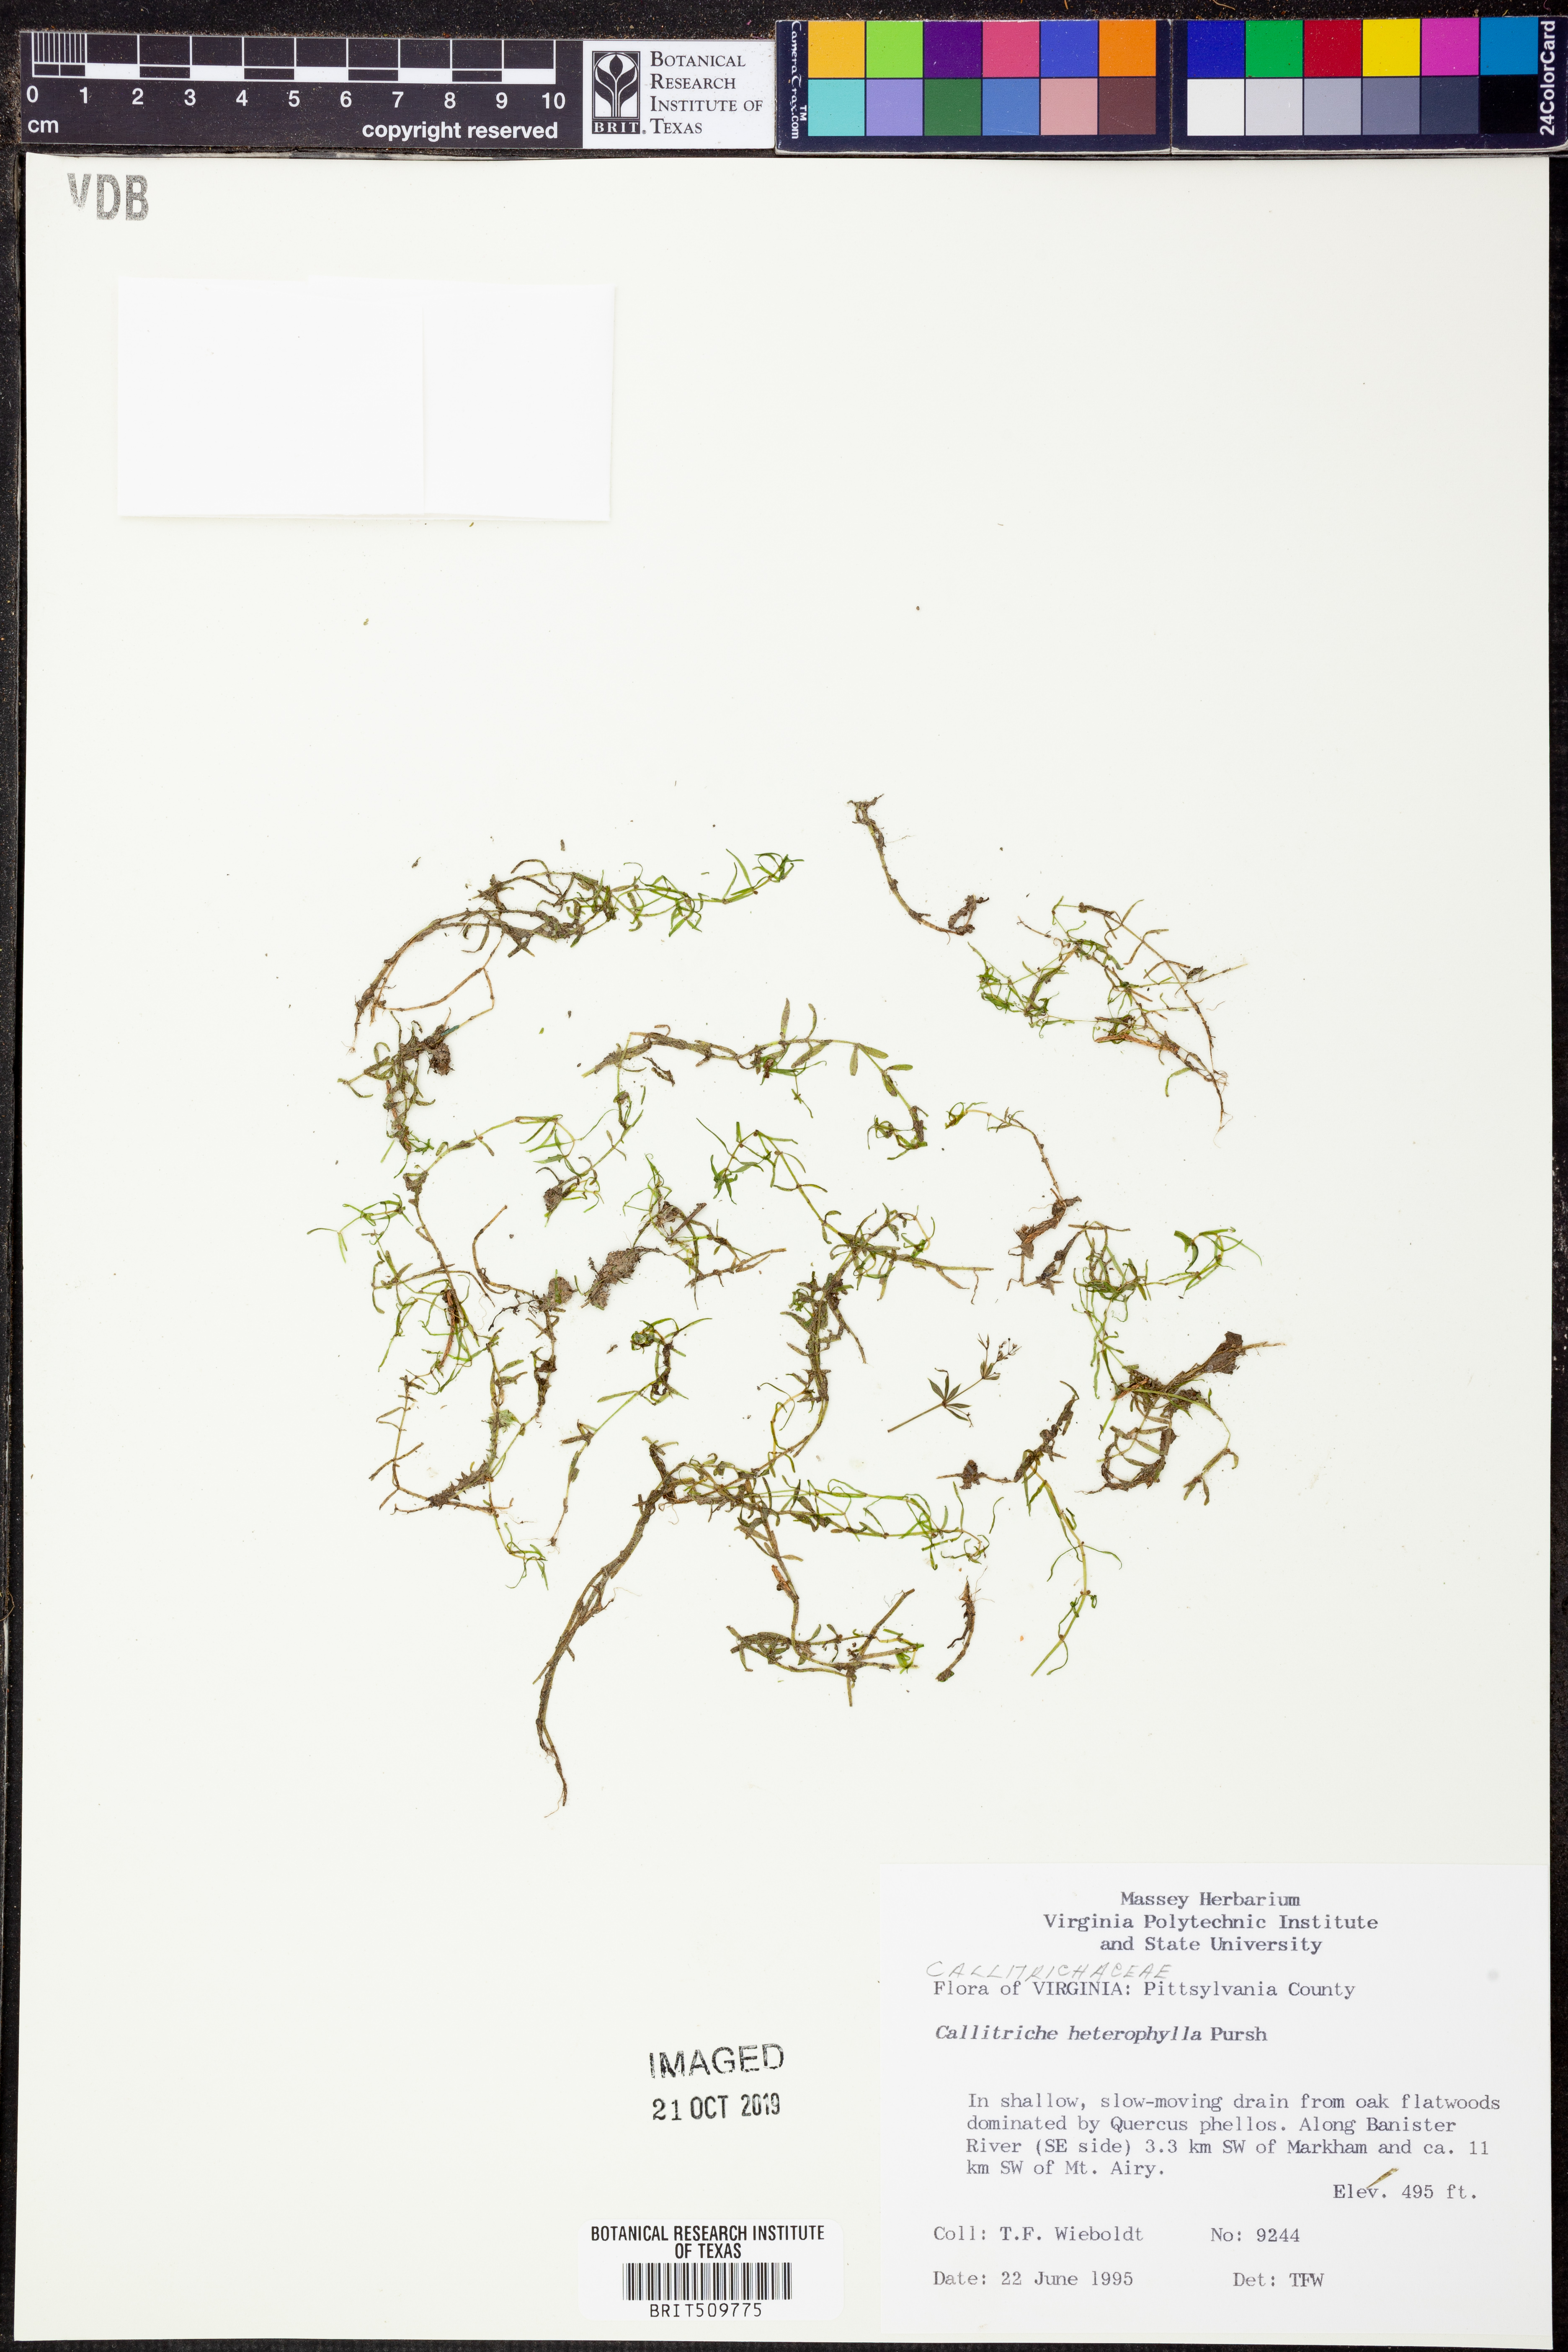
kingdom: Plantae
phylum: Tracheophyta
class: Magnoliopsida
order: Lamiales
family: Plantaginaceae
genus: Callitriche
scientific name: Callitriche heterophylla
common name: Two-headed water-starwort
